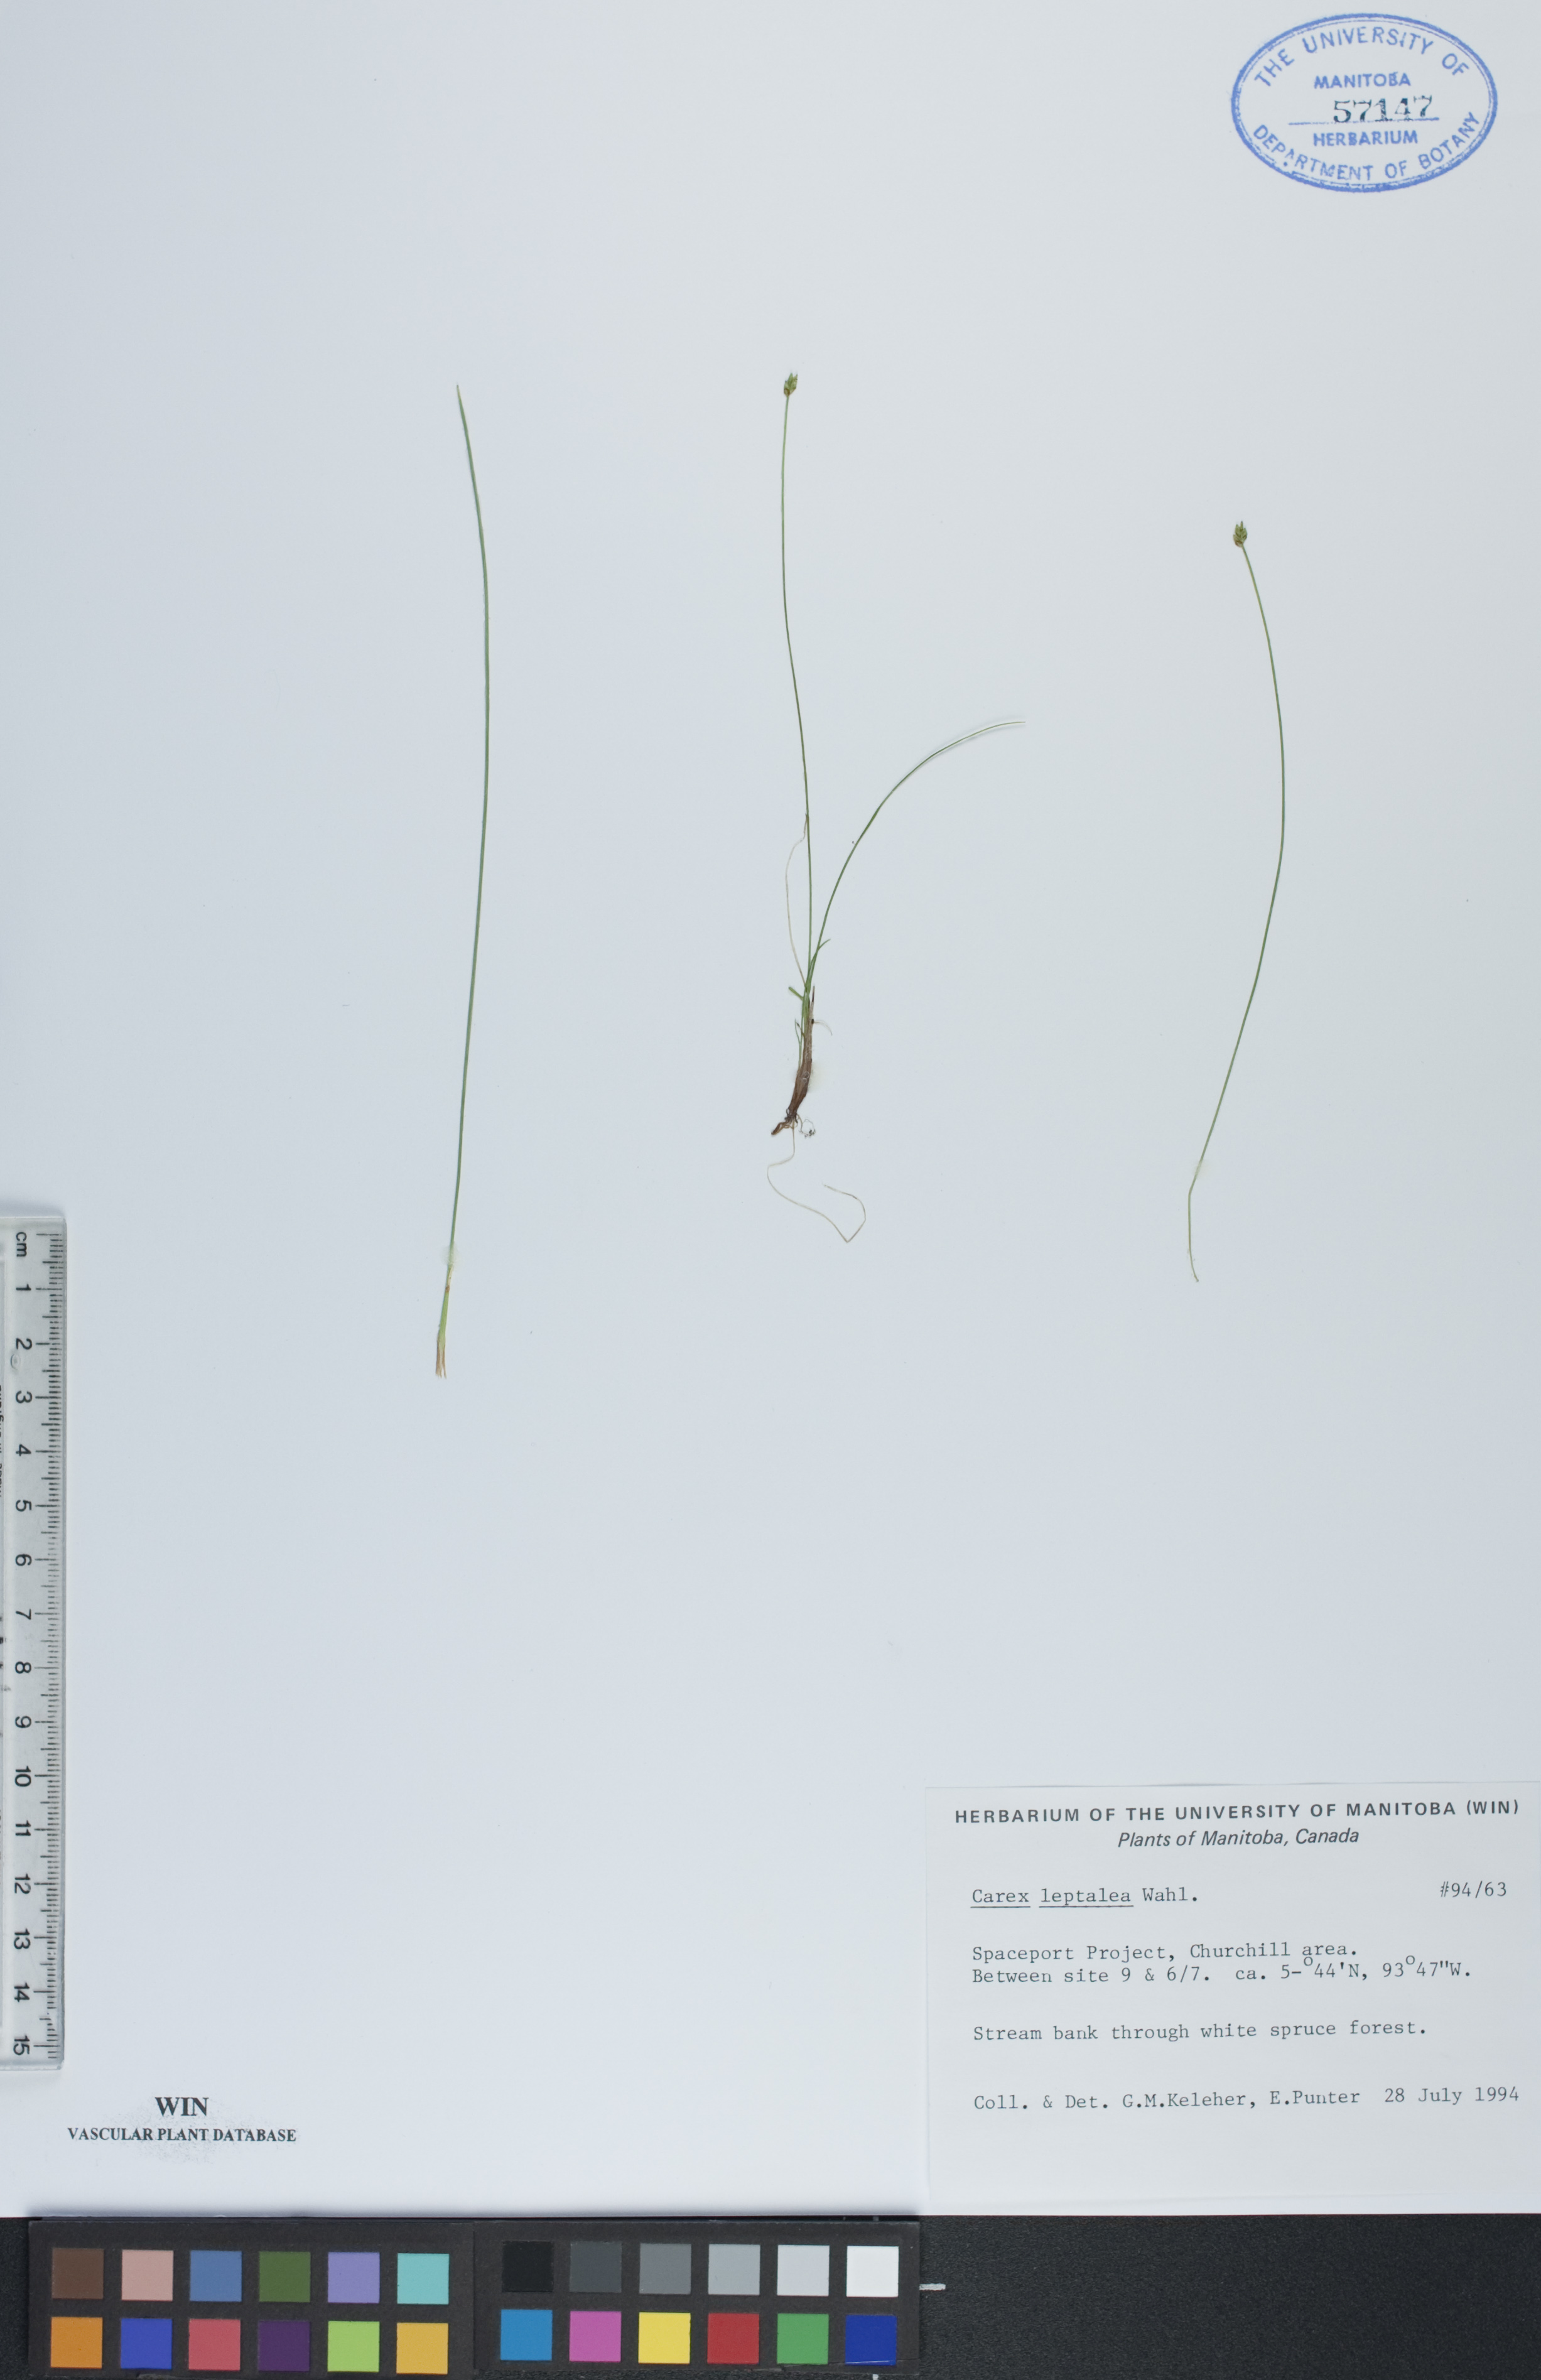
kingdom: Plantae
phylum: Tracheophyta
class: Liliopsida
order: Poales
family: Cyperaceae
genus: Carex
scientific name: Carex leptalea
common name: Bristly-stalked sedge
